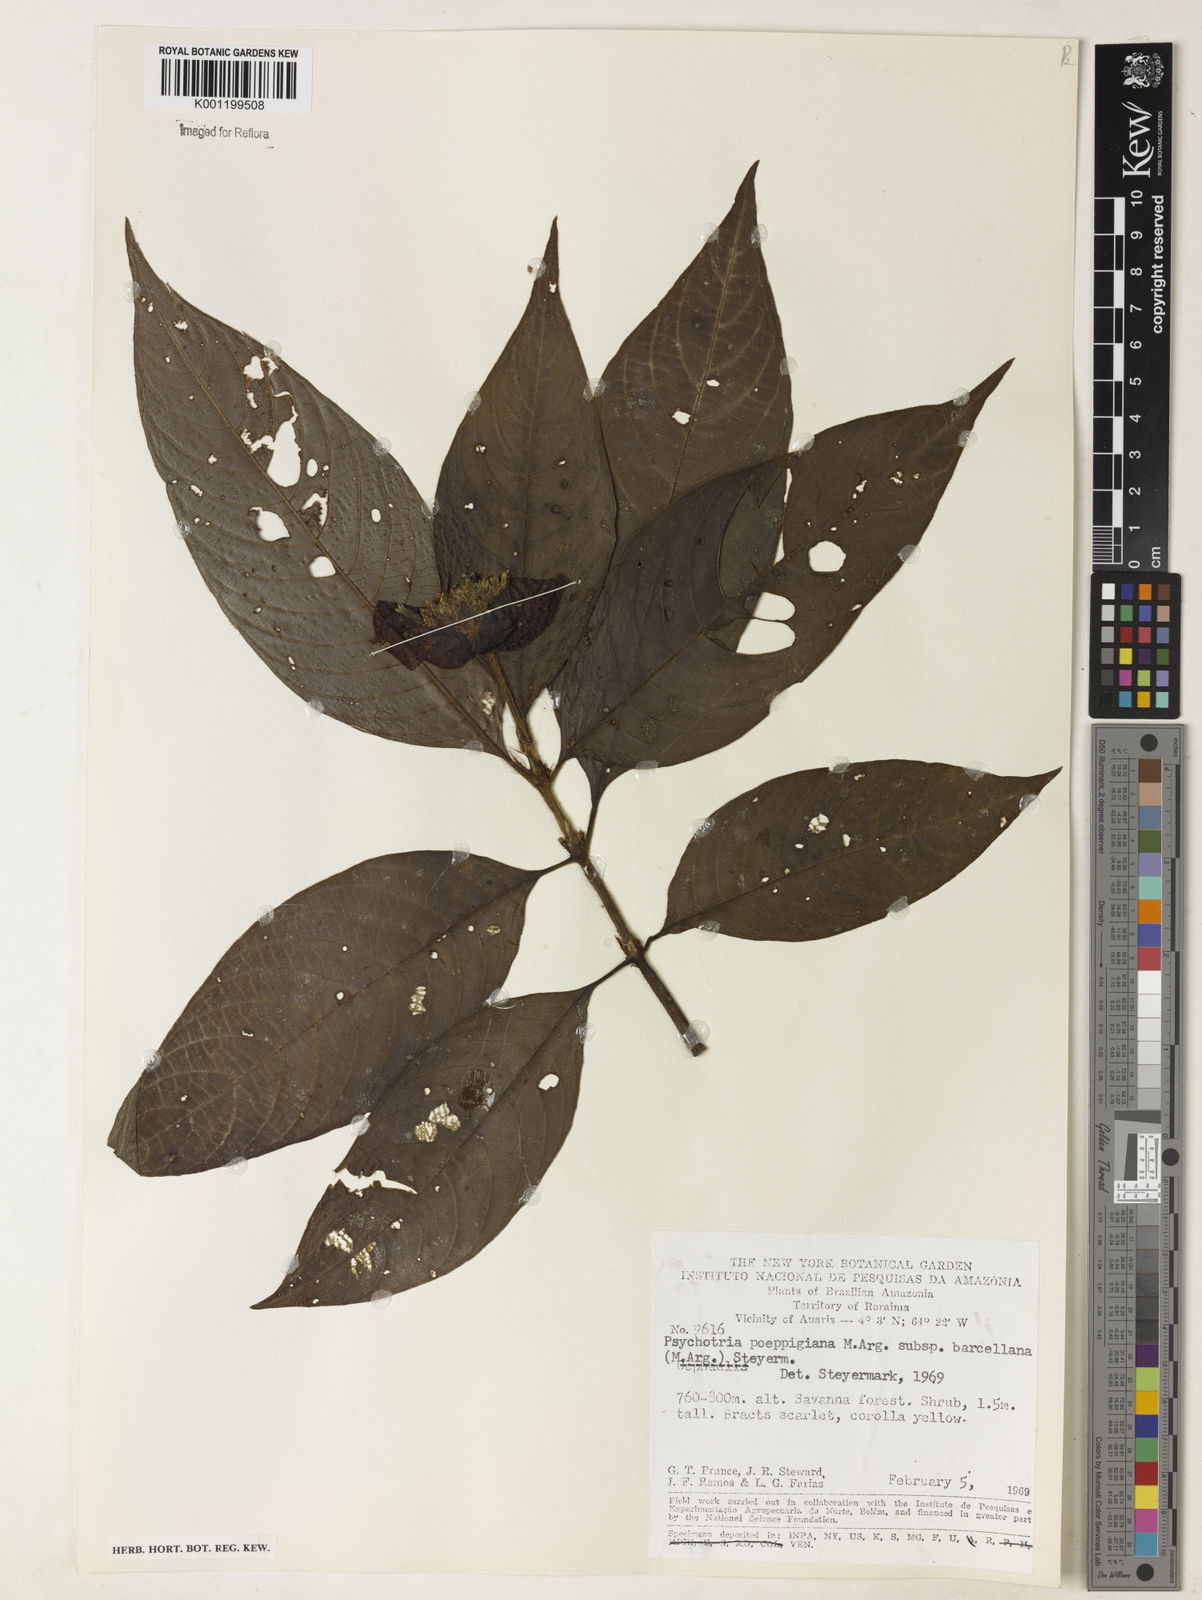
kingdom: Plantae
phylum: Tracheophyta
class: Magnoliopsida
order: Gentianales
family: Rubiaceae
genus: Psychotria
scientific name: Psychotria
